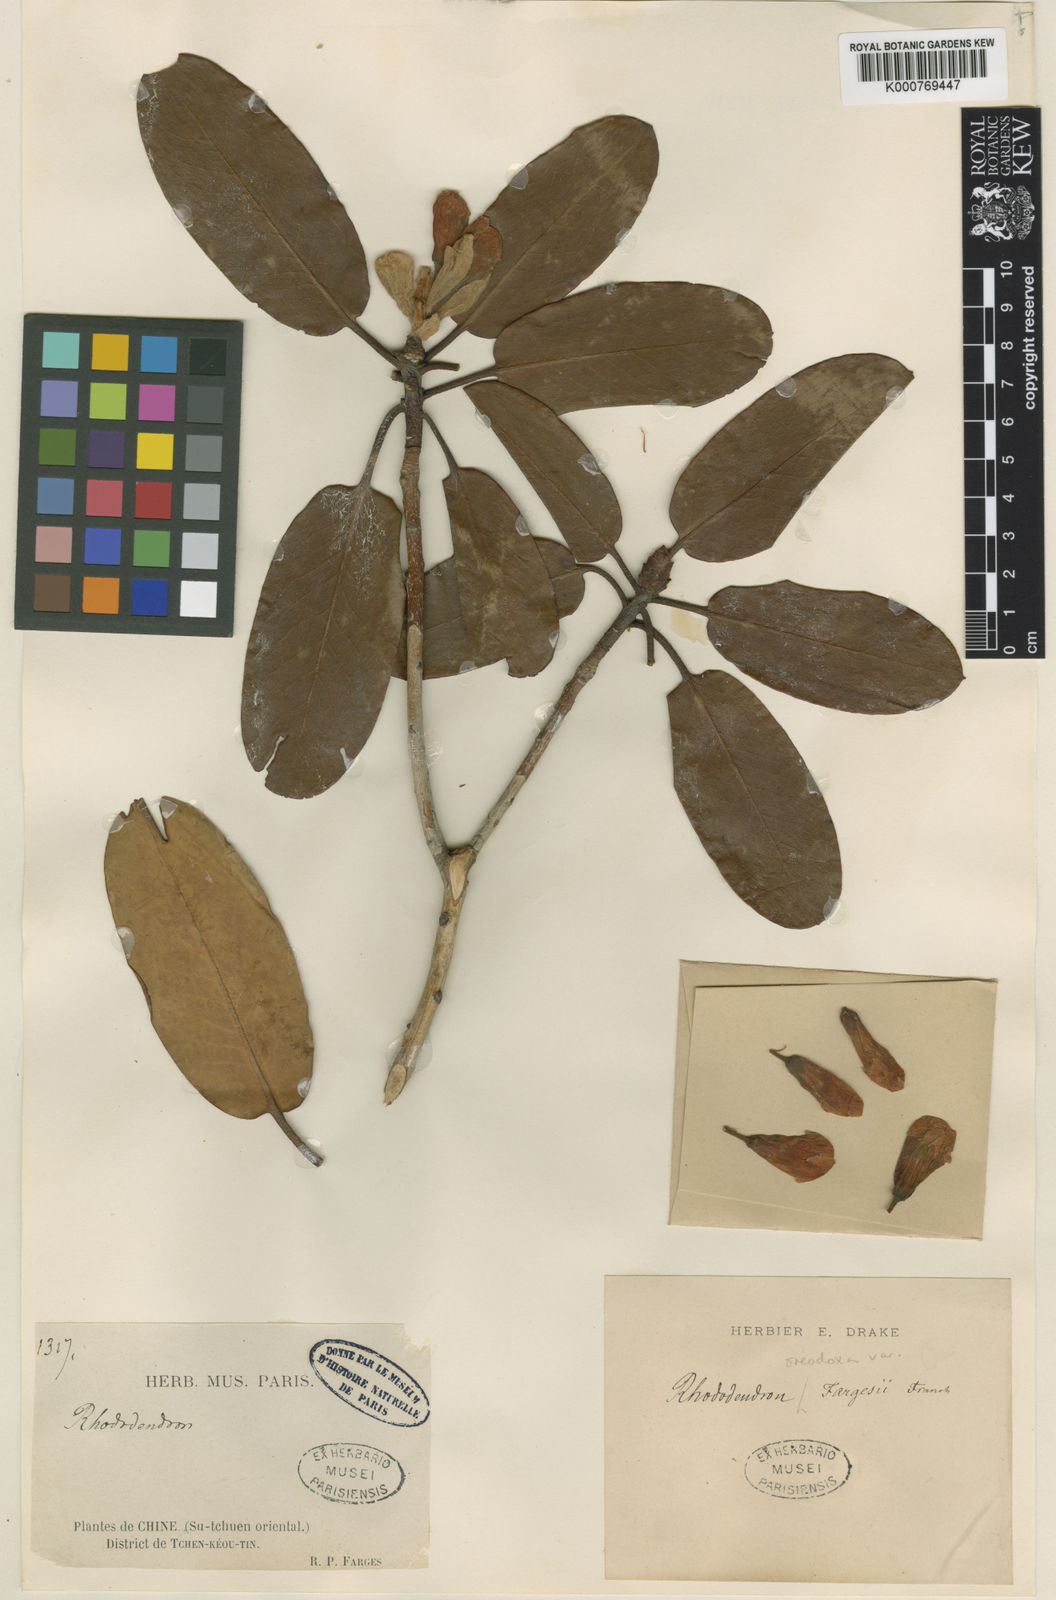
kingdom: Plantae
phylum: Tracheophyta
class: Magnoliopsida
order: Ericales
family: Ericaceae
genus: Rhododendron
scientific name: Rhododendron oreodoxa
